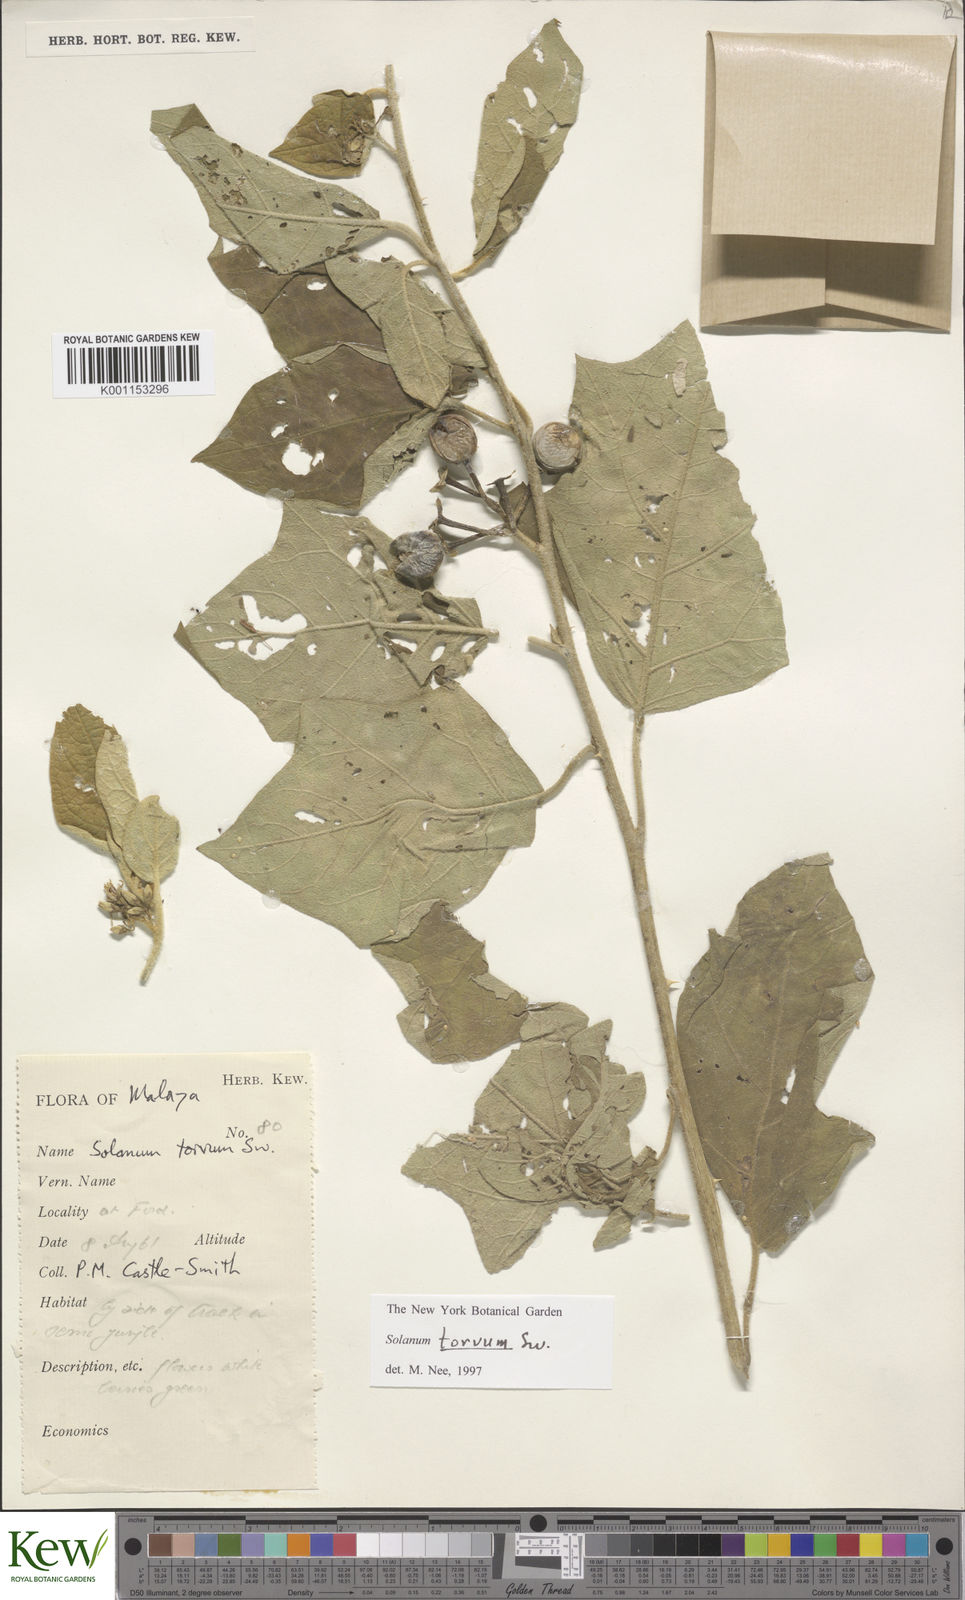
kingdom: Plantae
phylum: Tracheophyta
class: Magnoliopsida
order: Solanales
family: Solanaceae
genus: Solanum
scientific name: Solanum torvum
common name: Turkey berry
